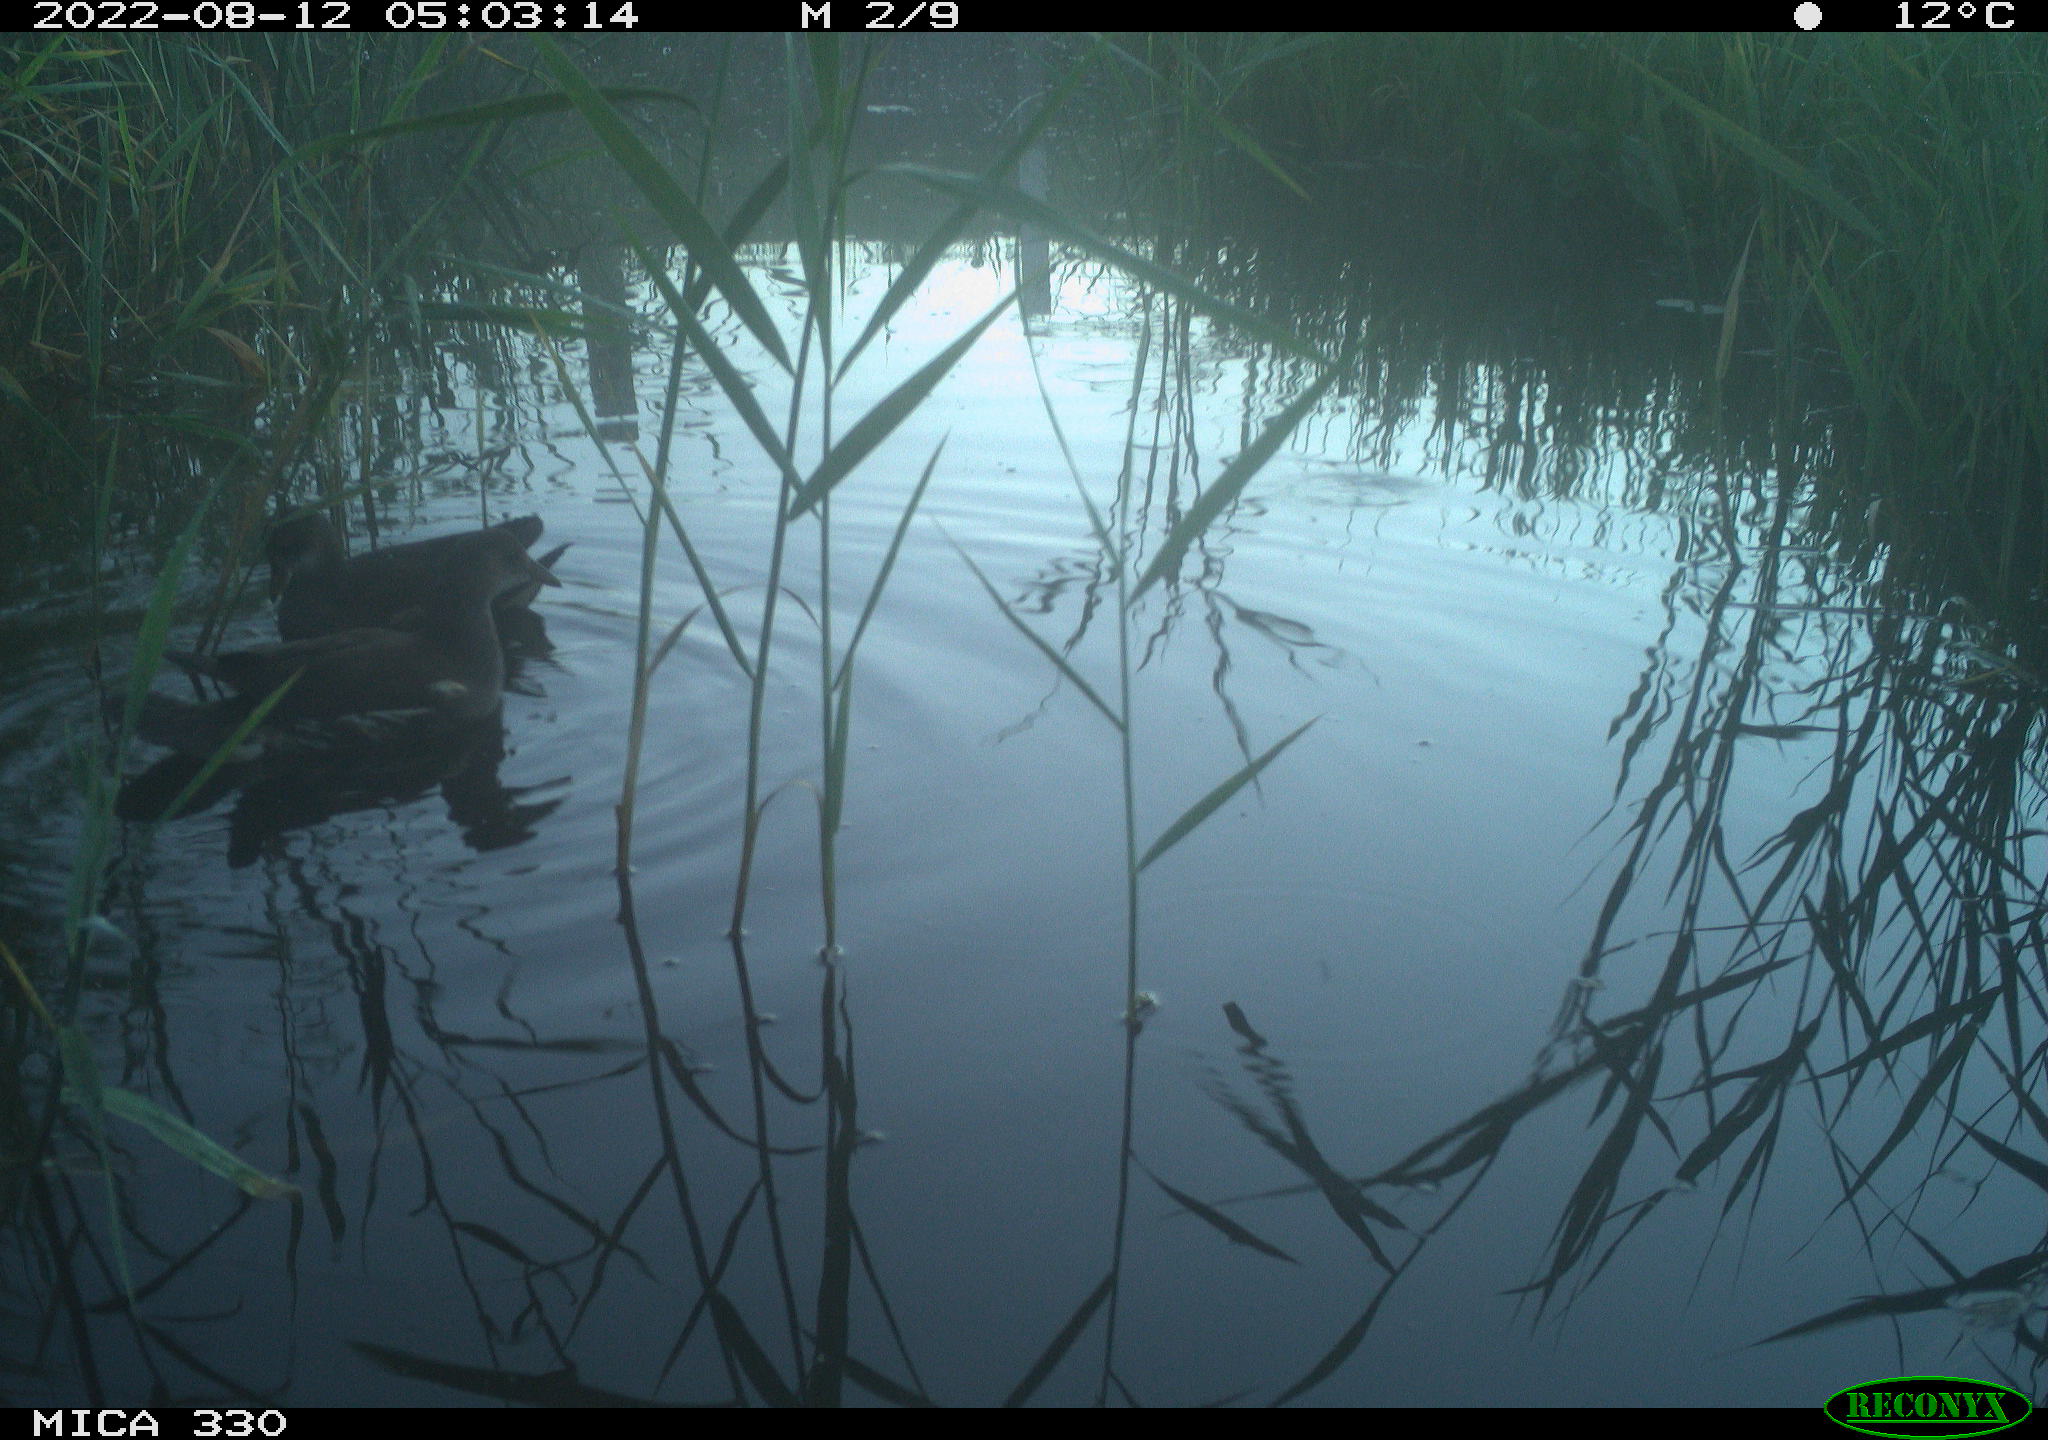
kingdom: Animalia
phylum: Chordata
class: Aves
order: Gruiformes
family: Rallidae
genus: Gallinula
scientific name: Gallinula chloropus
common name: Common moorhen
